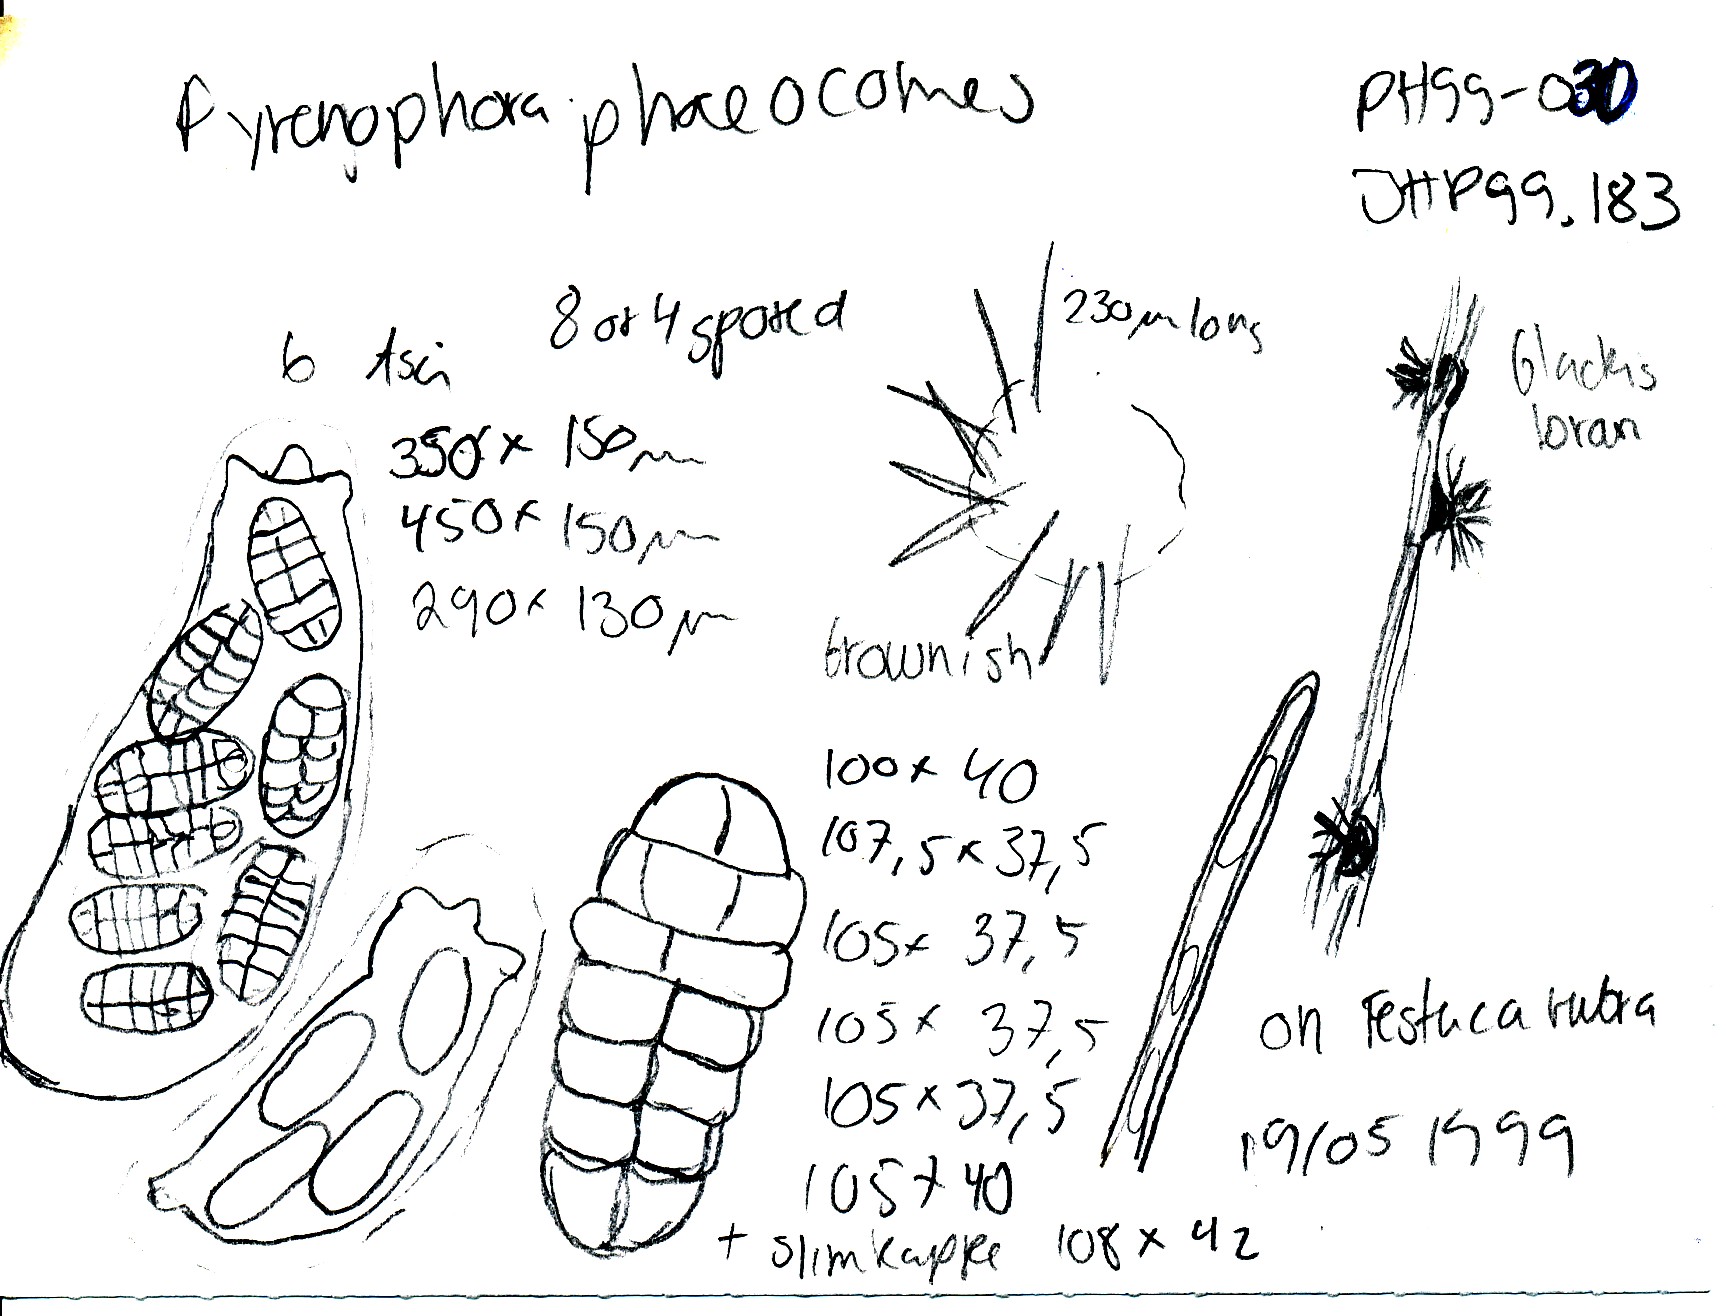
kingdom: Fungi
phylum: Ascomycota
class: Dothideomycetes
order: Pleosporales
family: Pleosporaceae
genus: Pyrenophora
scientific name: Pyrenophora phaeocomes
